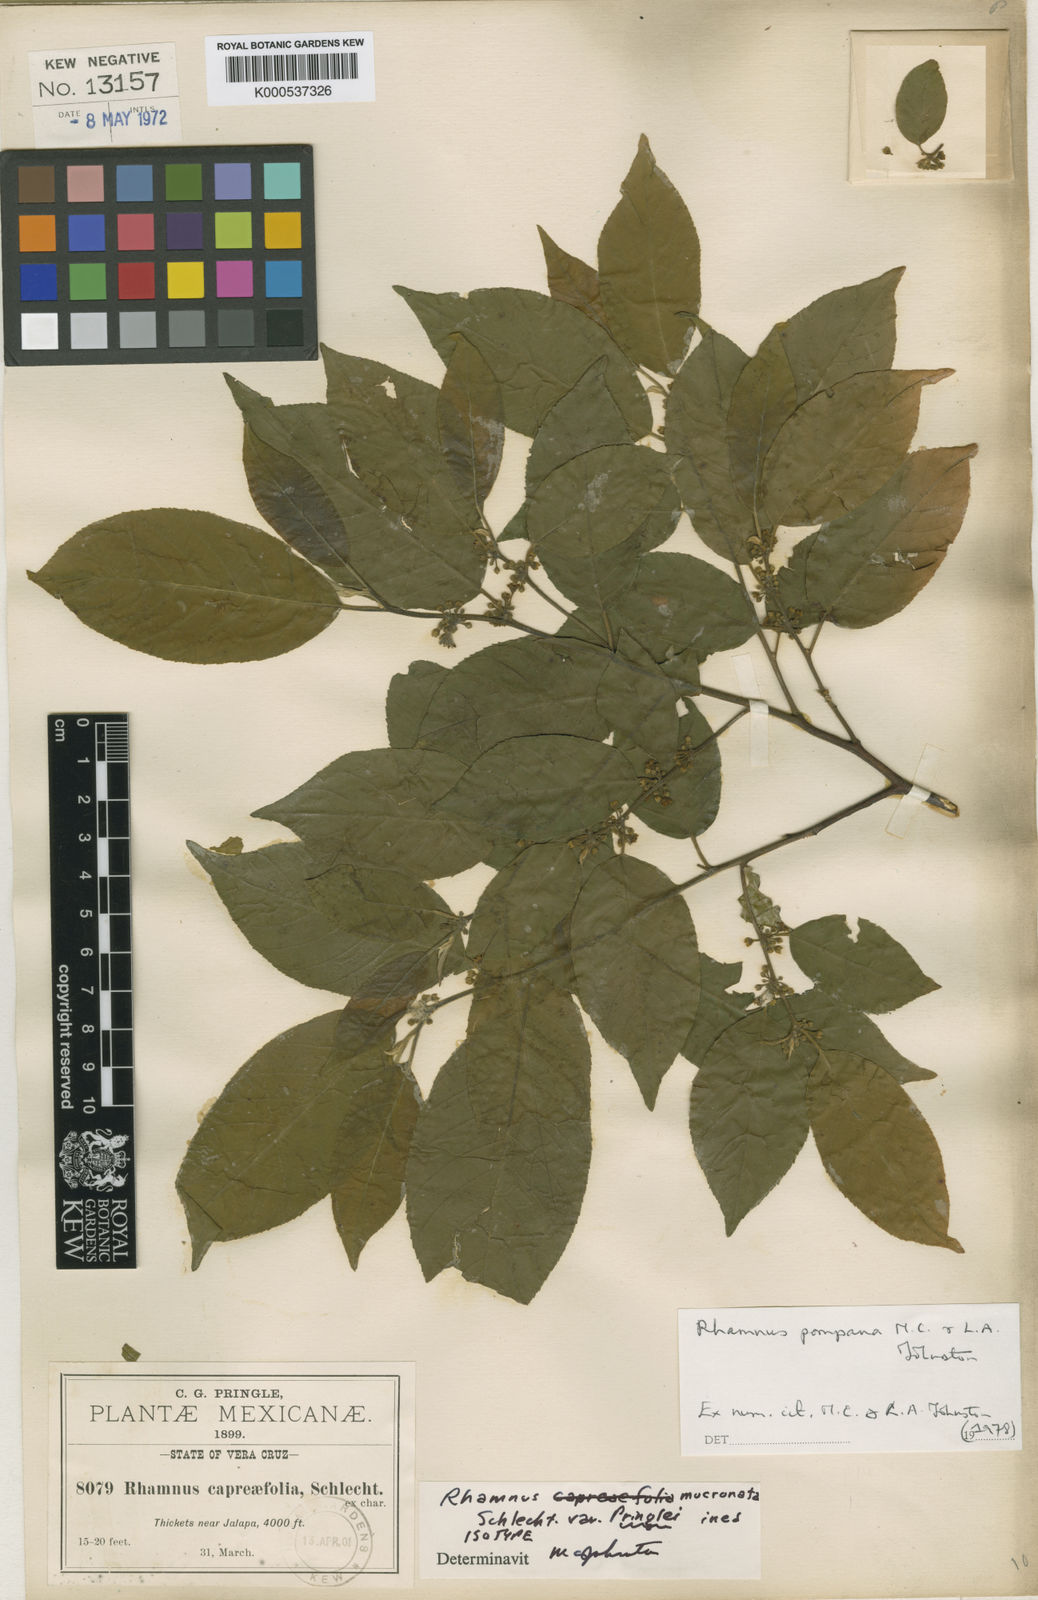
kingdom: Plantae
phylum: Tracheophyta
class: Magnoliopsida
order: Rosales
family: Rhamnaceae
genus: Frangula
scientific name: Frangula capreifolia
